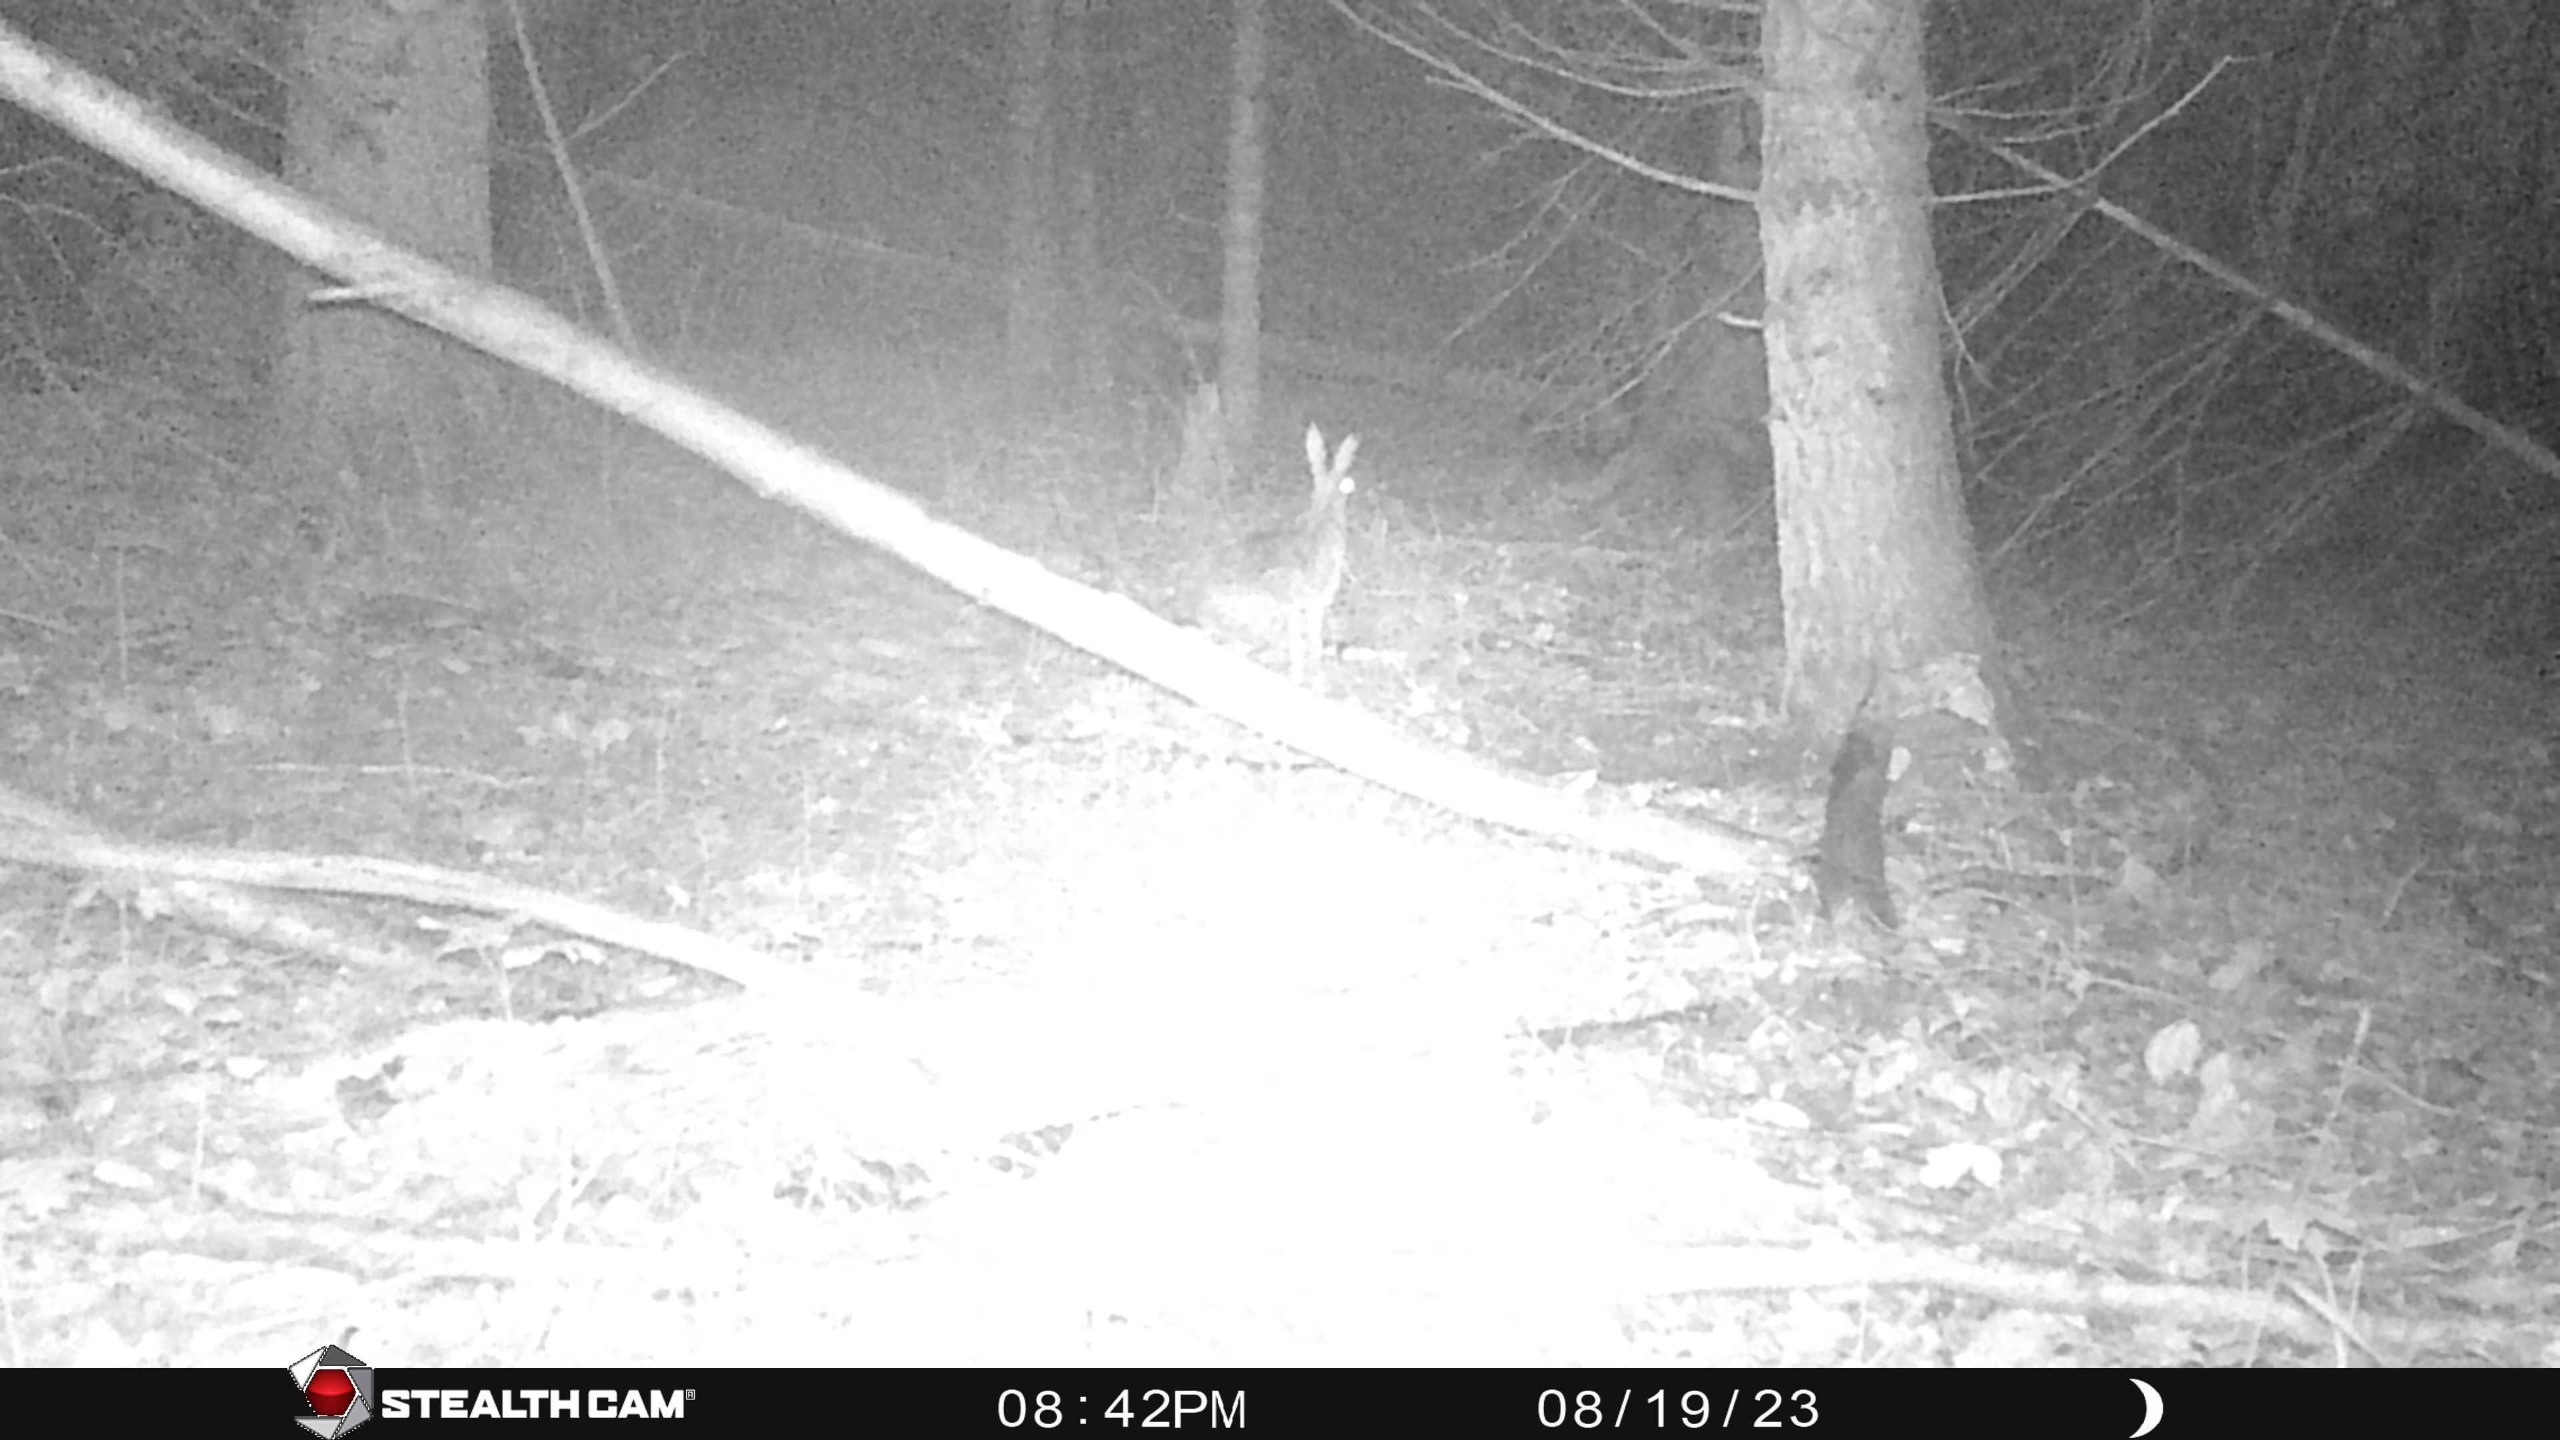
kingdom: Animalia
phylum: Chordata
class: Mammalia
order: Lagomorpha
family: Leporidae
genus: Lepus
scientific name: Lepus europaeus
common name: Hare
